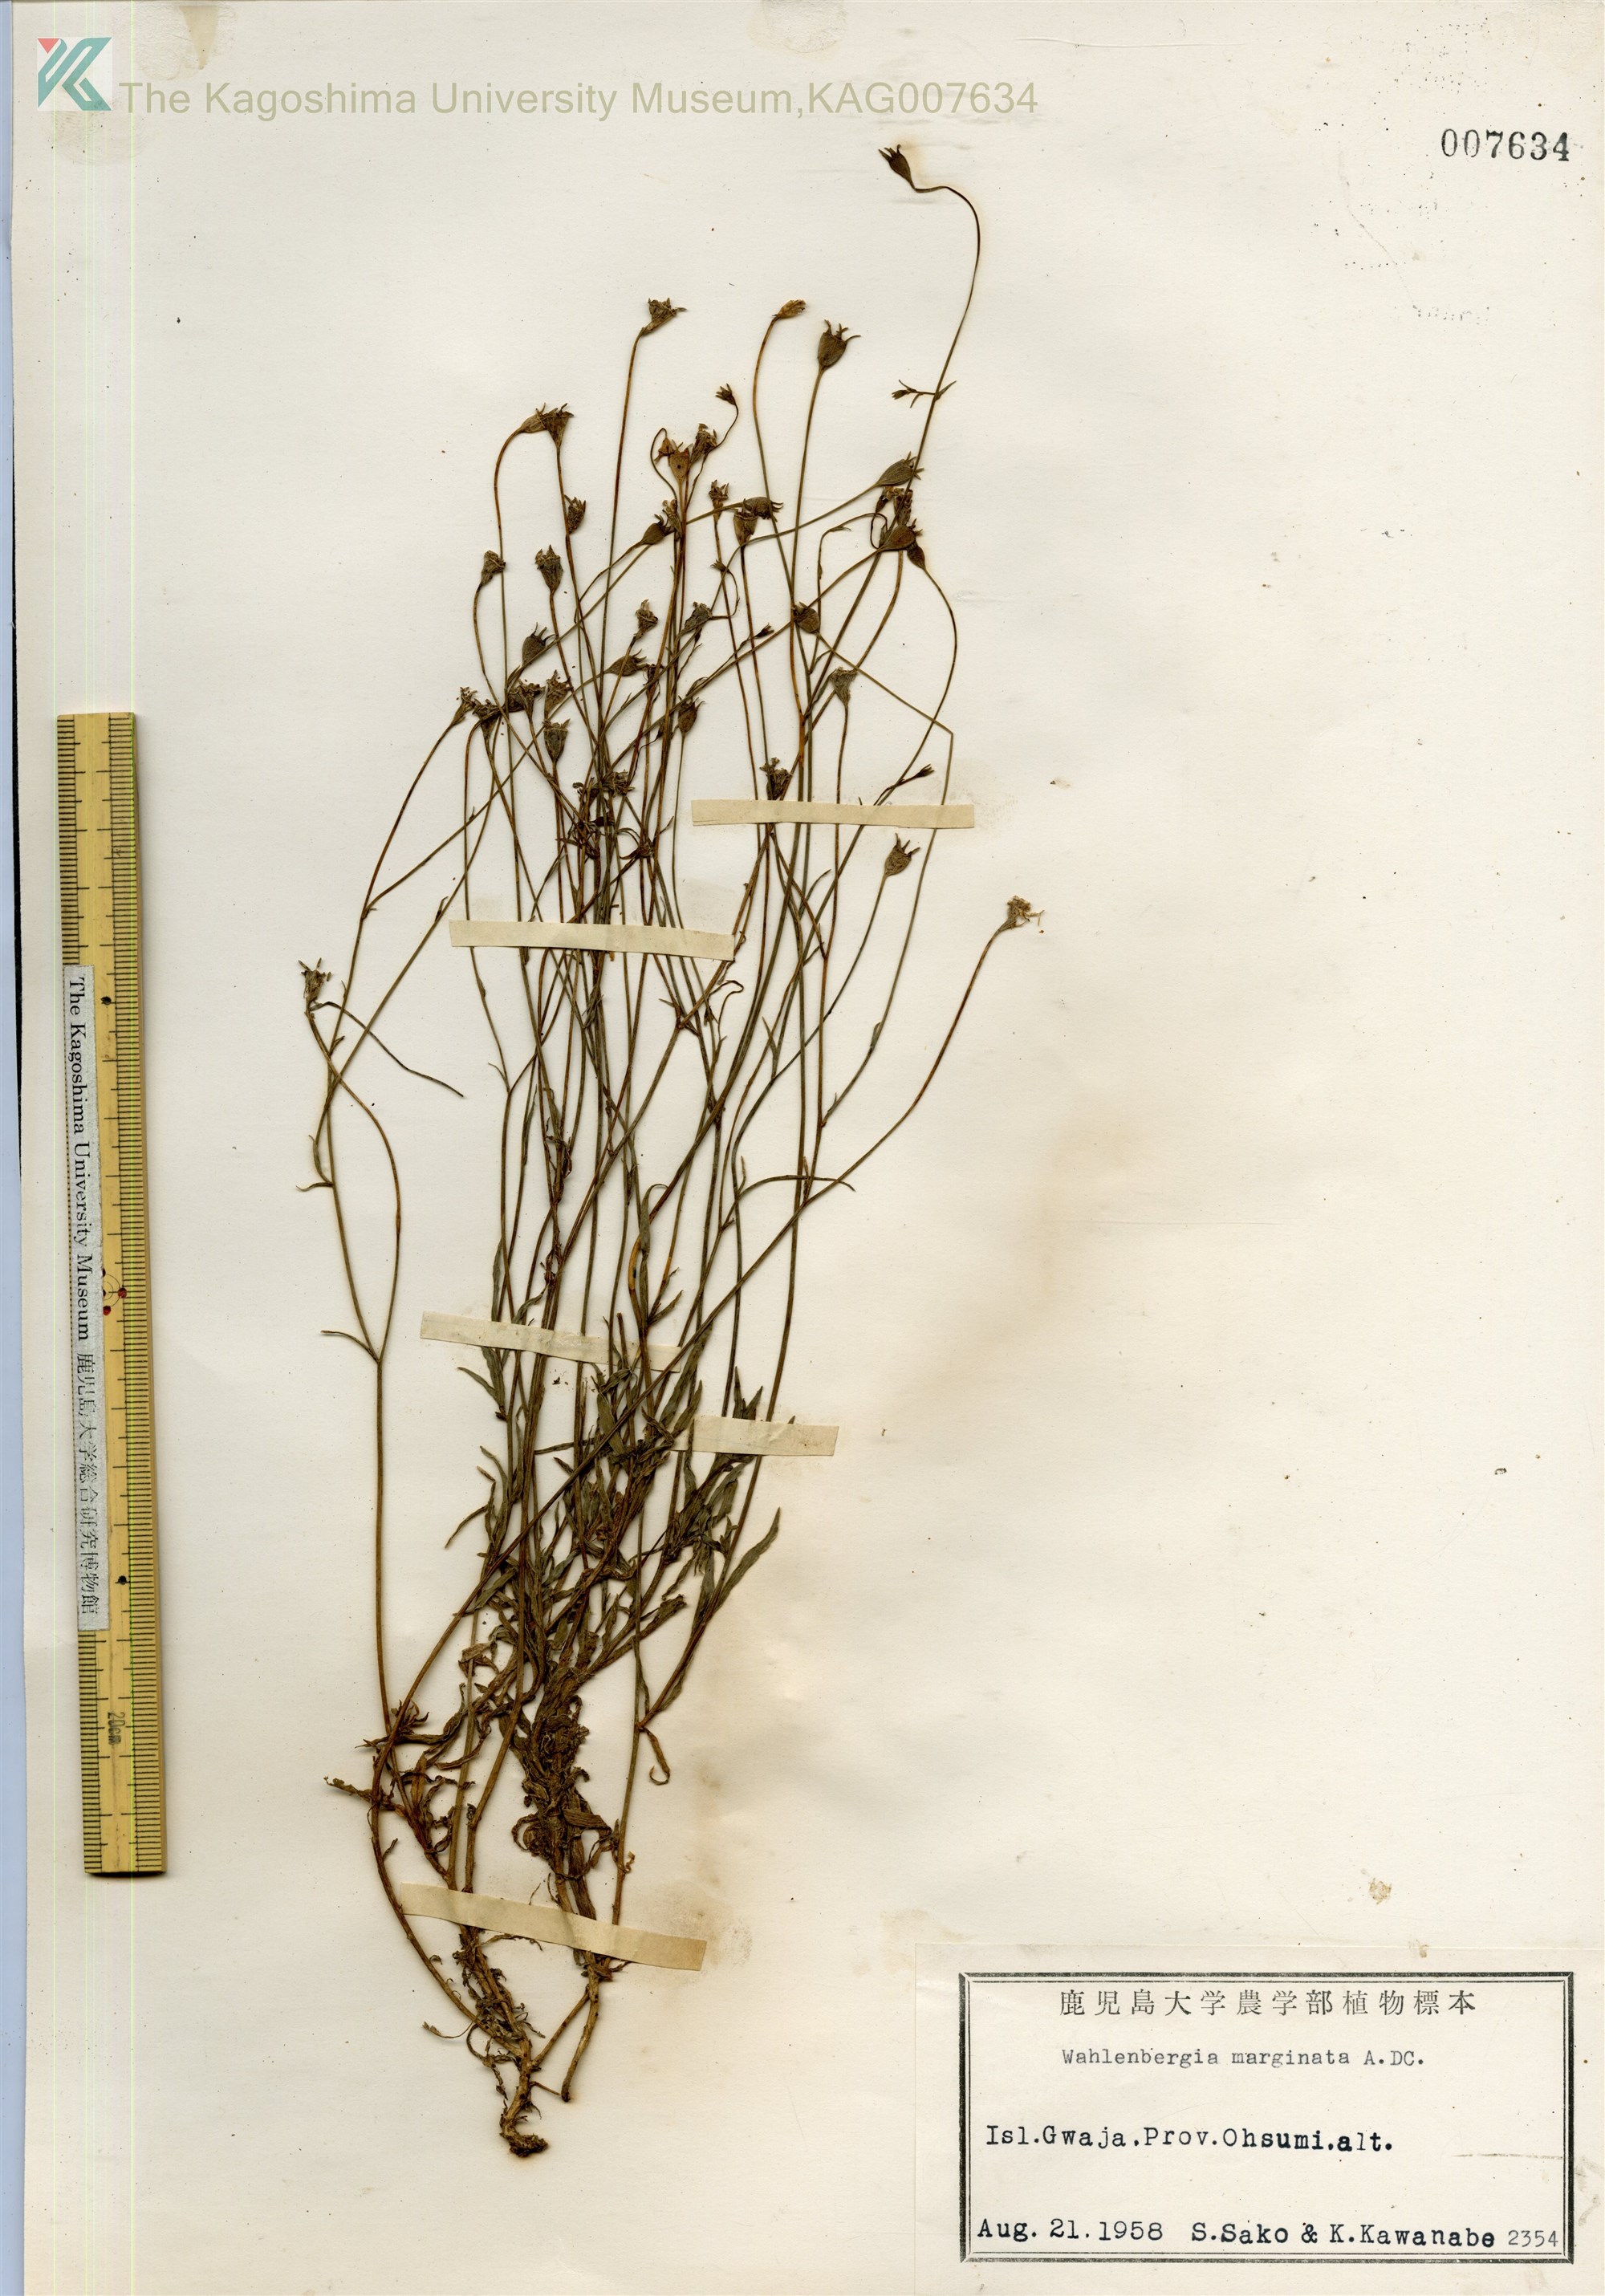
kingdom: Plantae
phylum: Tracheophyta
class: Magnoliopsida
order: Asterales
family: Campanulaceae
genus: Wahlenbergia
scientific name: Wahlenbergia marginata
